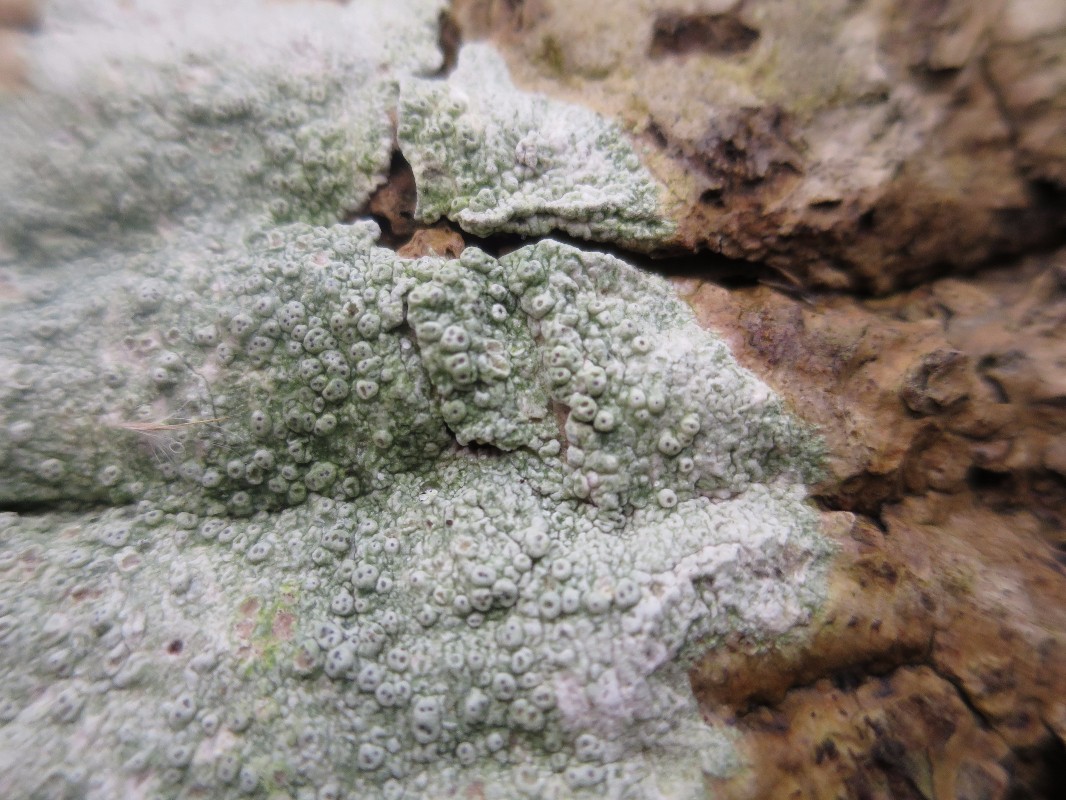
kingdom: Fungi
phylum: Ascomycota
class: Lecanoromycetes
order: Pertusariales
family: Pertusariaceae
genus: Pertusaria
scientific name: Pertusaria pertusa
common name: almindelig prikvortelav
